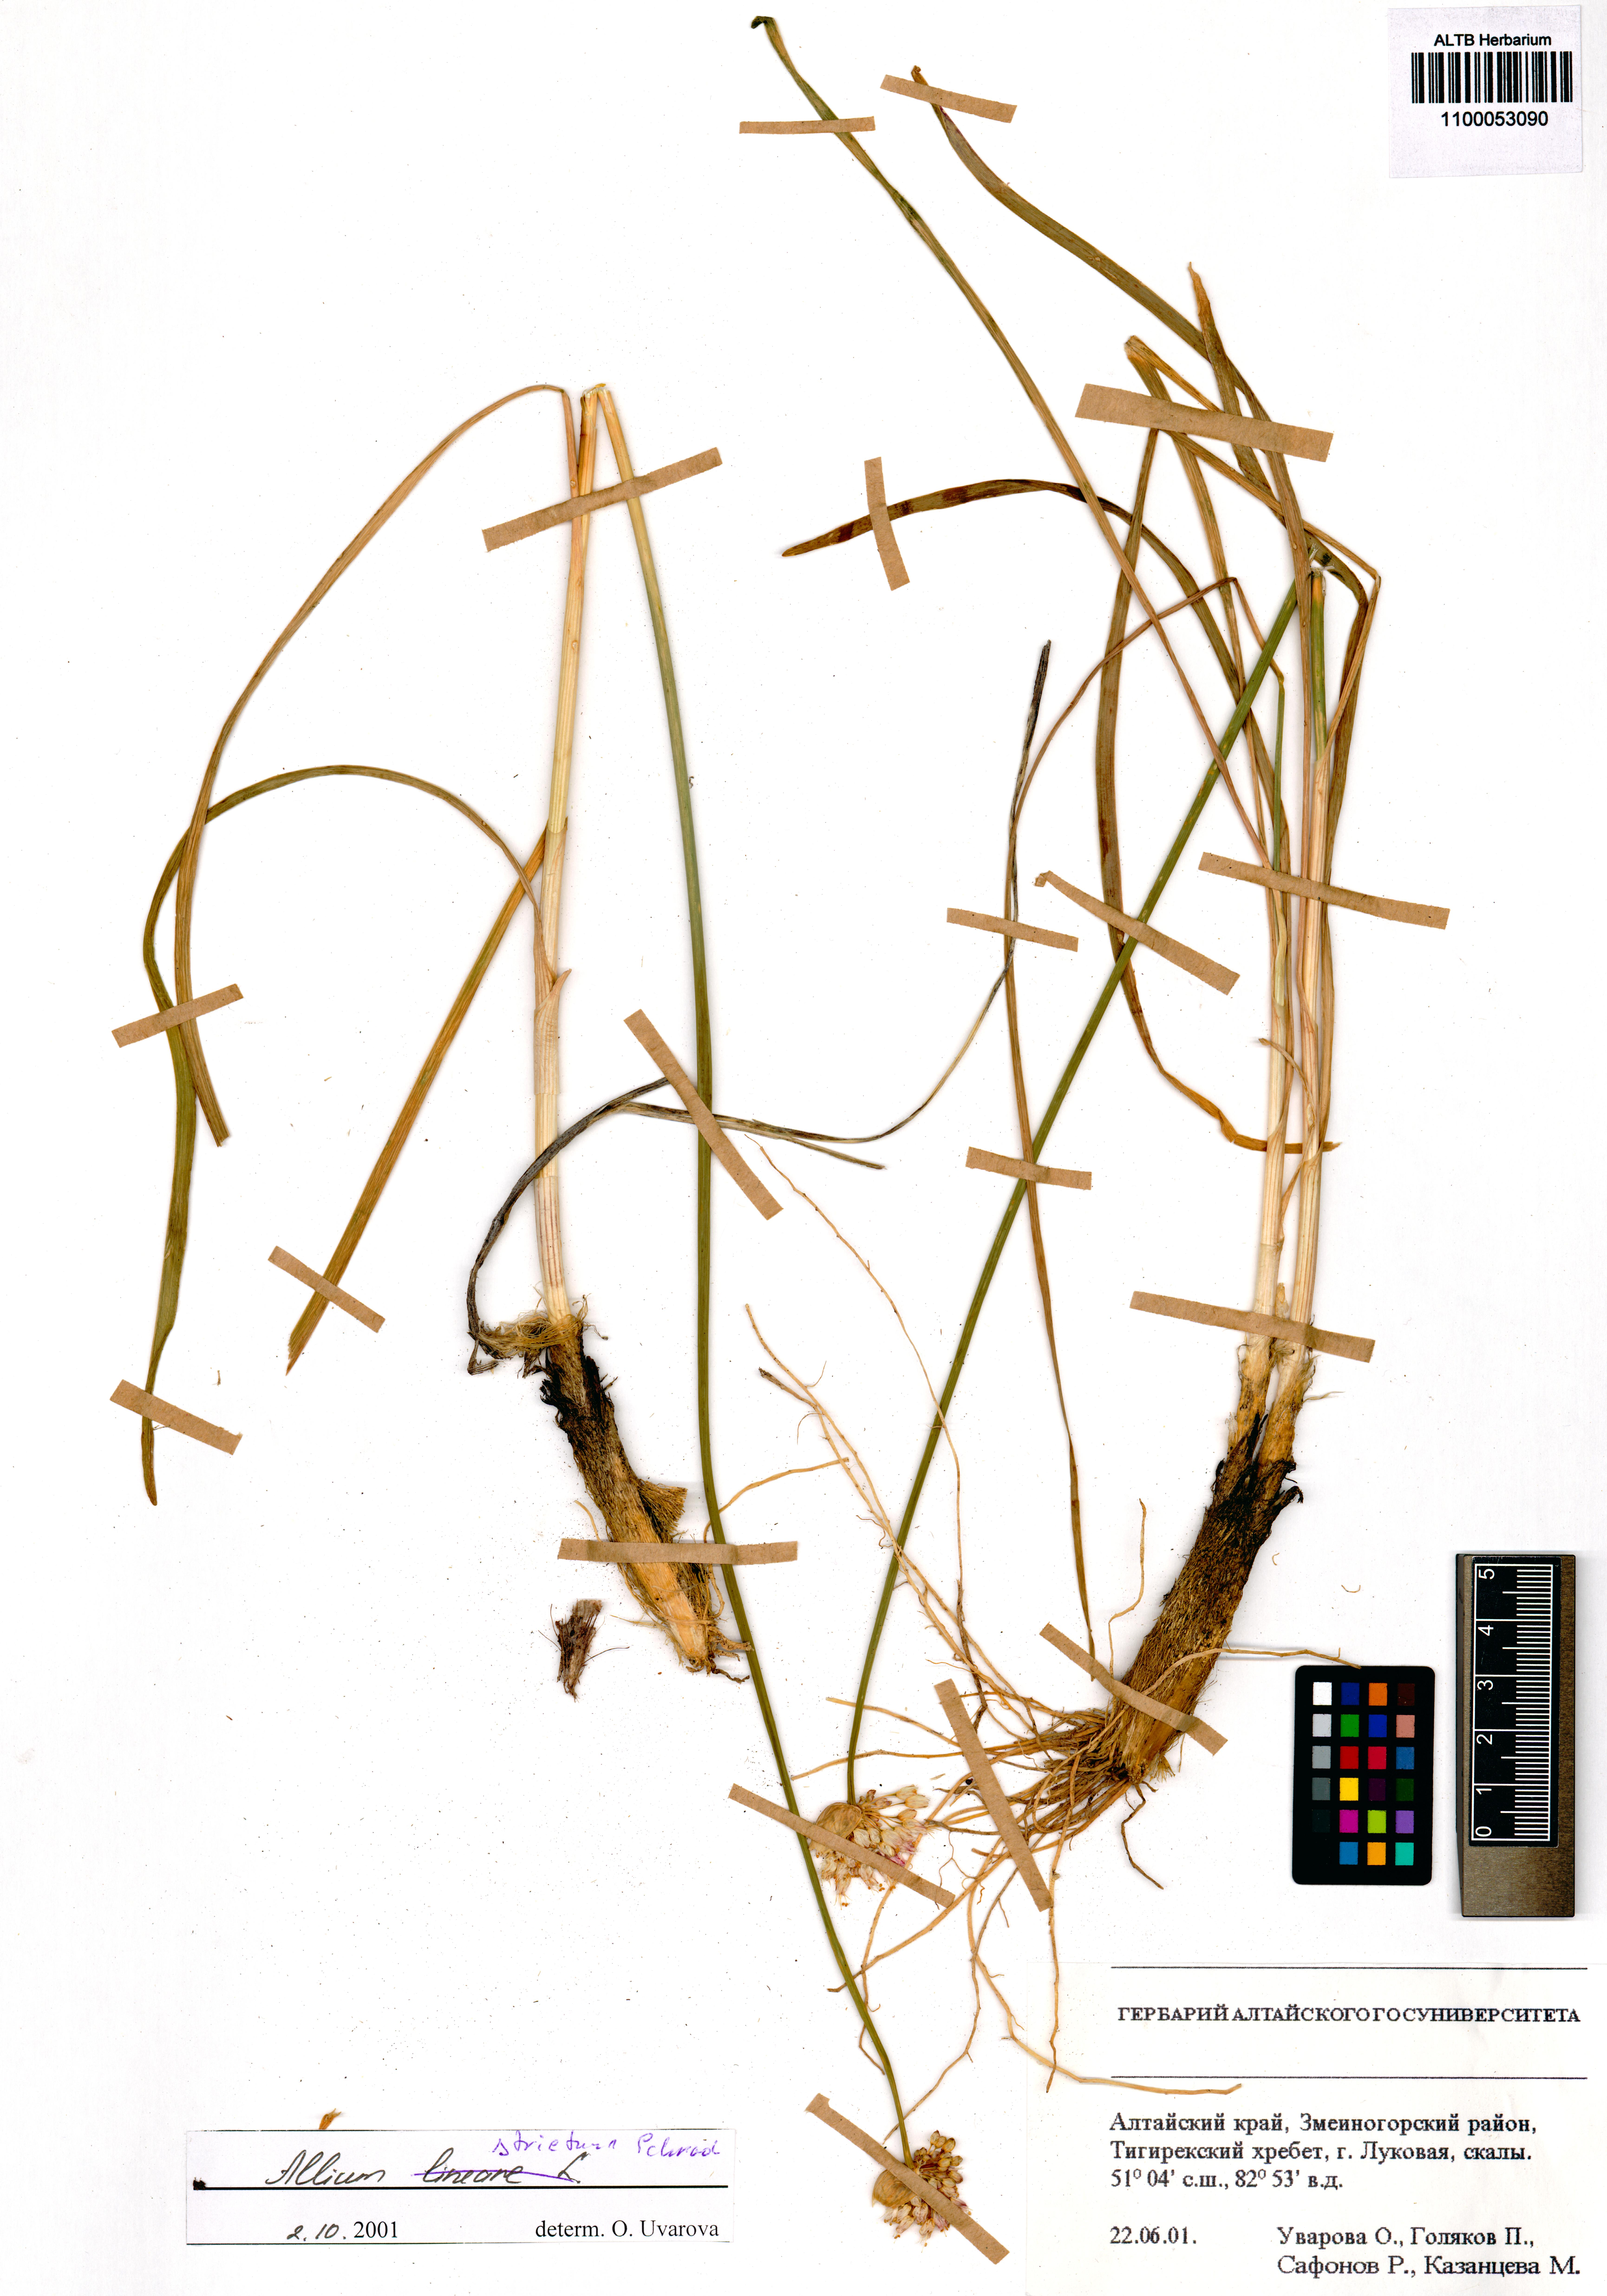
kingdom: Plantae
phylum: Tracheophyta
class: Liliopsida
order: Asparagales
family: Amaryllidaceae
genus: Allium
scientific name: Allium strictum
